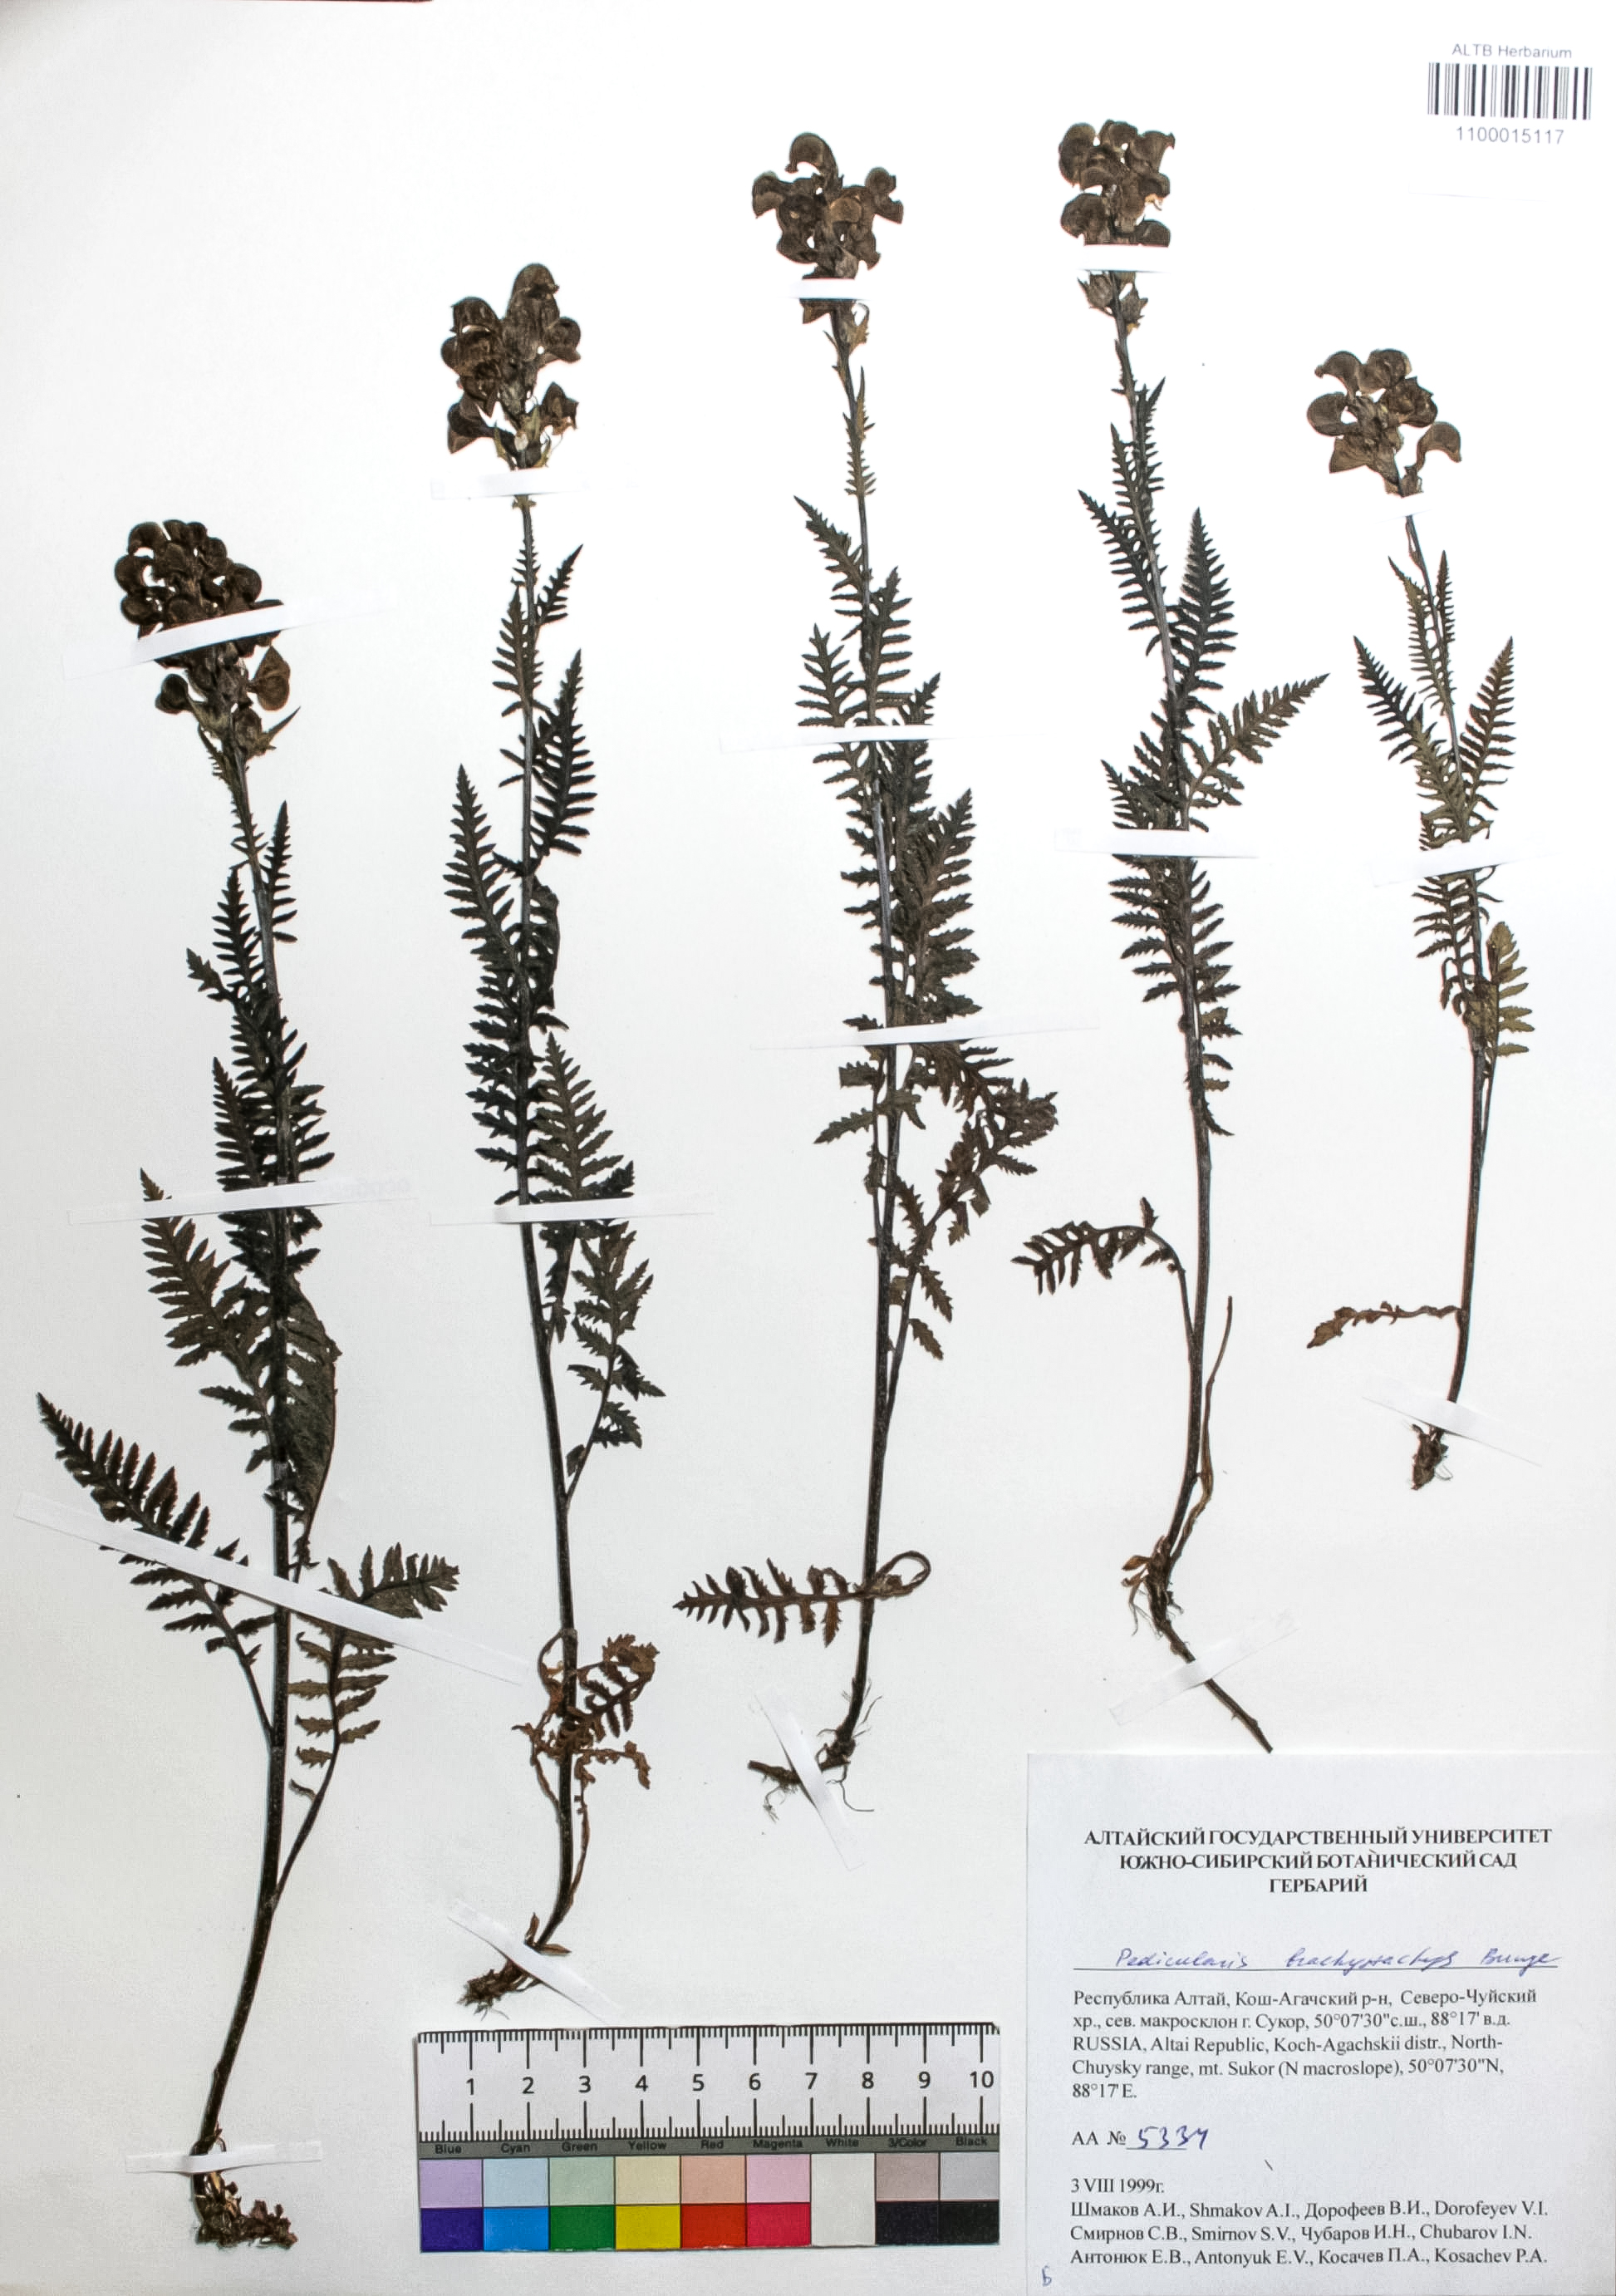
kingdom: Plantae
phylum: Tracheophyta
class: Magnoliopsida
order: Lamiales
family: Orobanchaceae
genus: Pedicularis
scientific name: Pedicularis brachystachys
